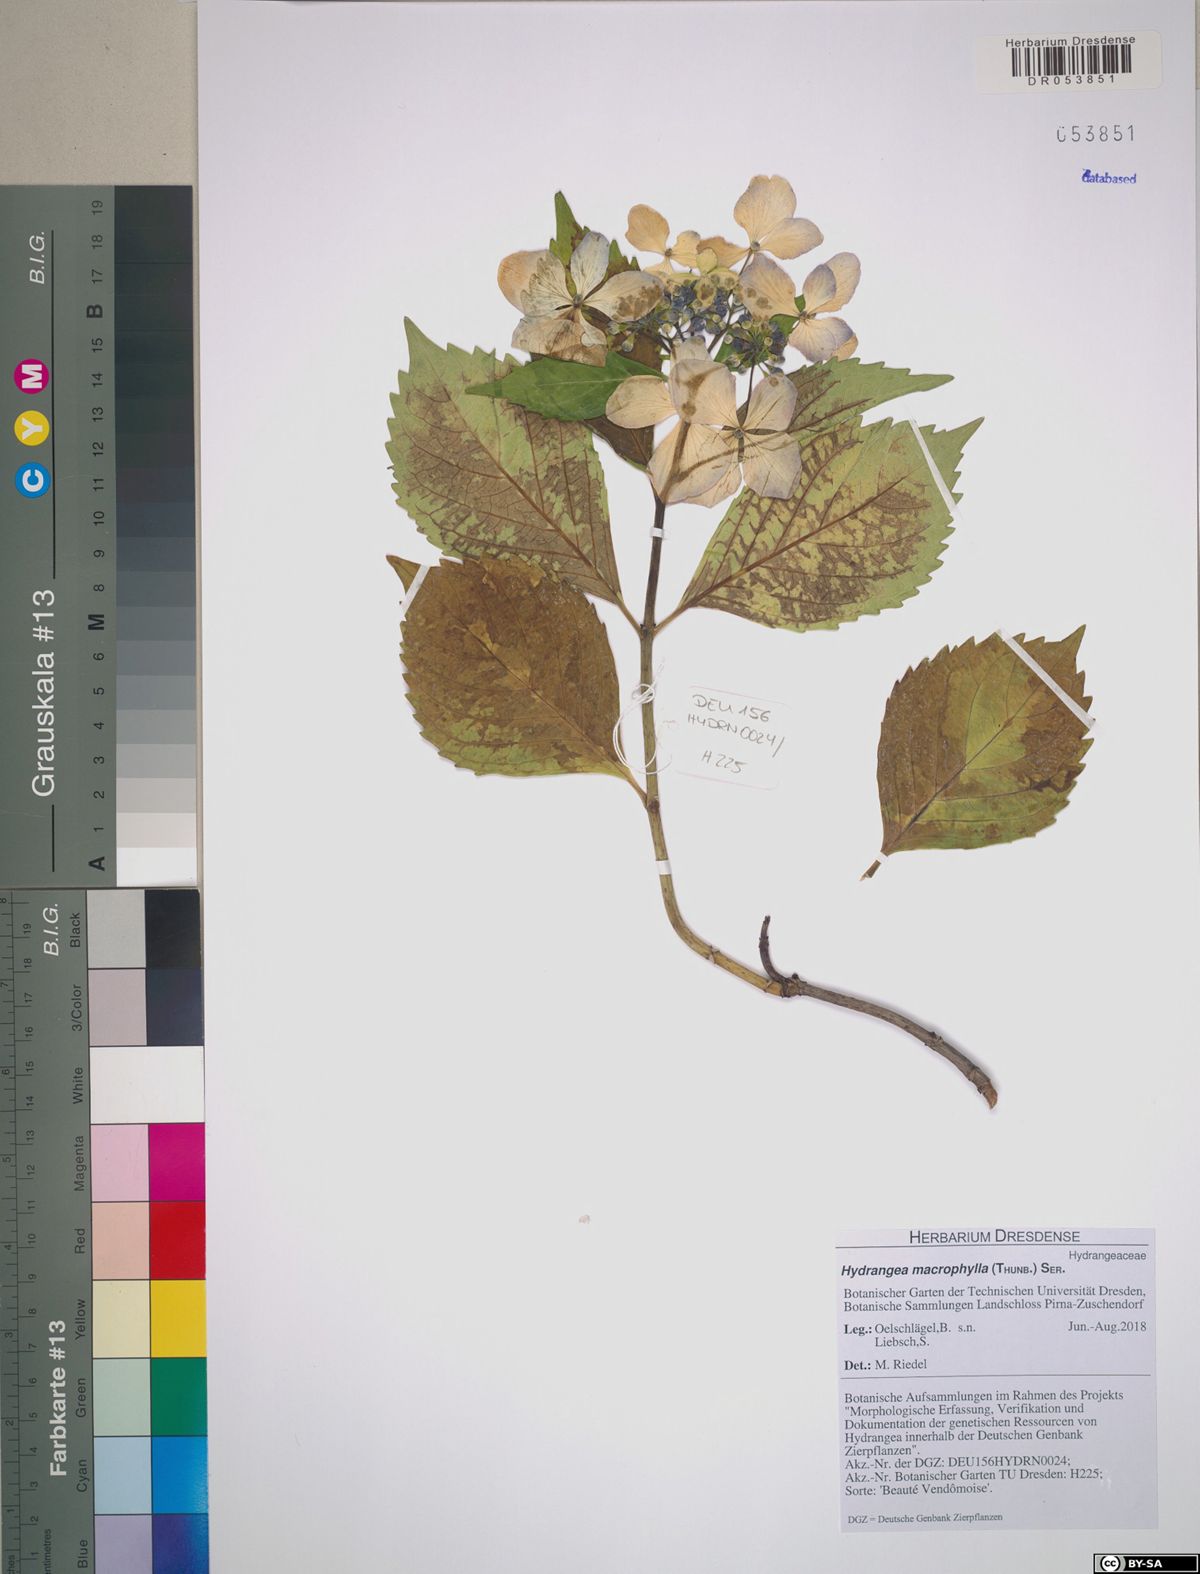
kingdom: Plantae
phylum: Tracheophyta
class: Magnoliopsida
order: Cornales
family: Hydrangeaceae
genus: Hydrangea
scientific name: Hydrangea macrophylla
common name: Hydrangea
